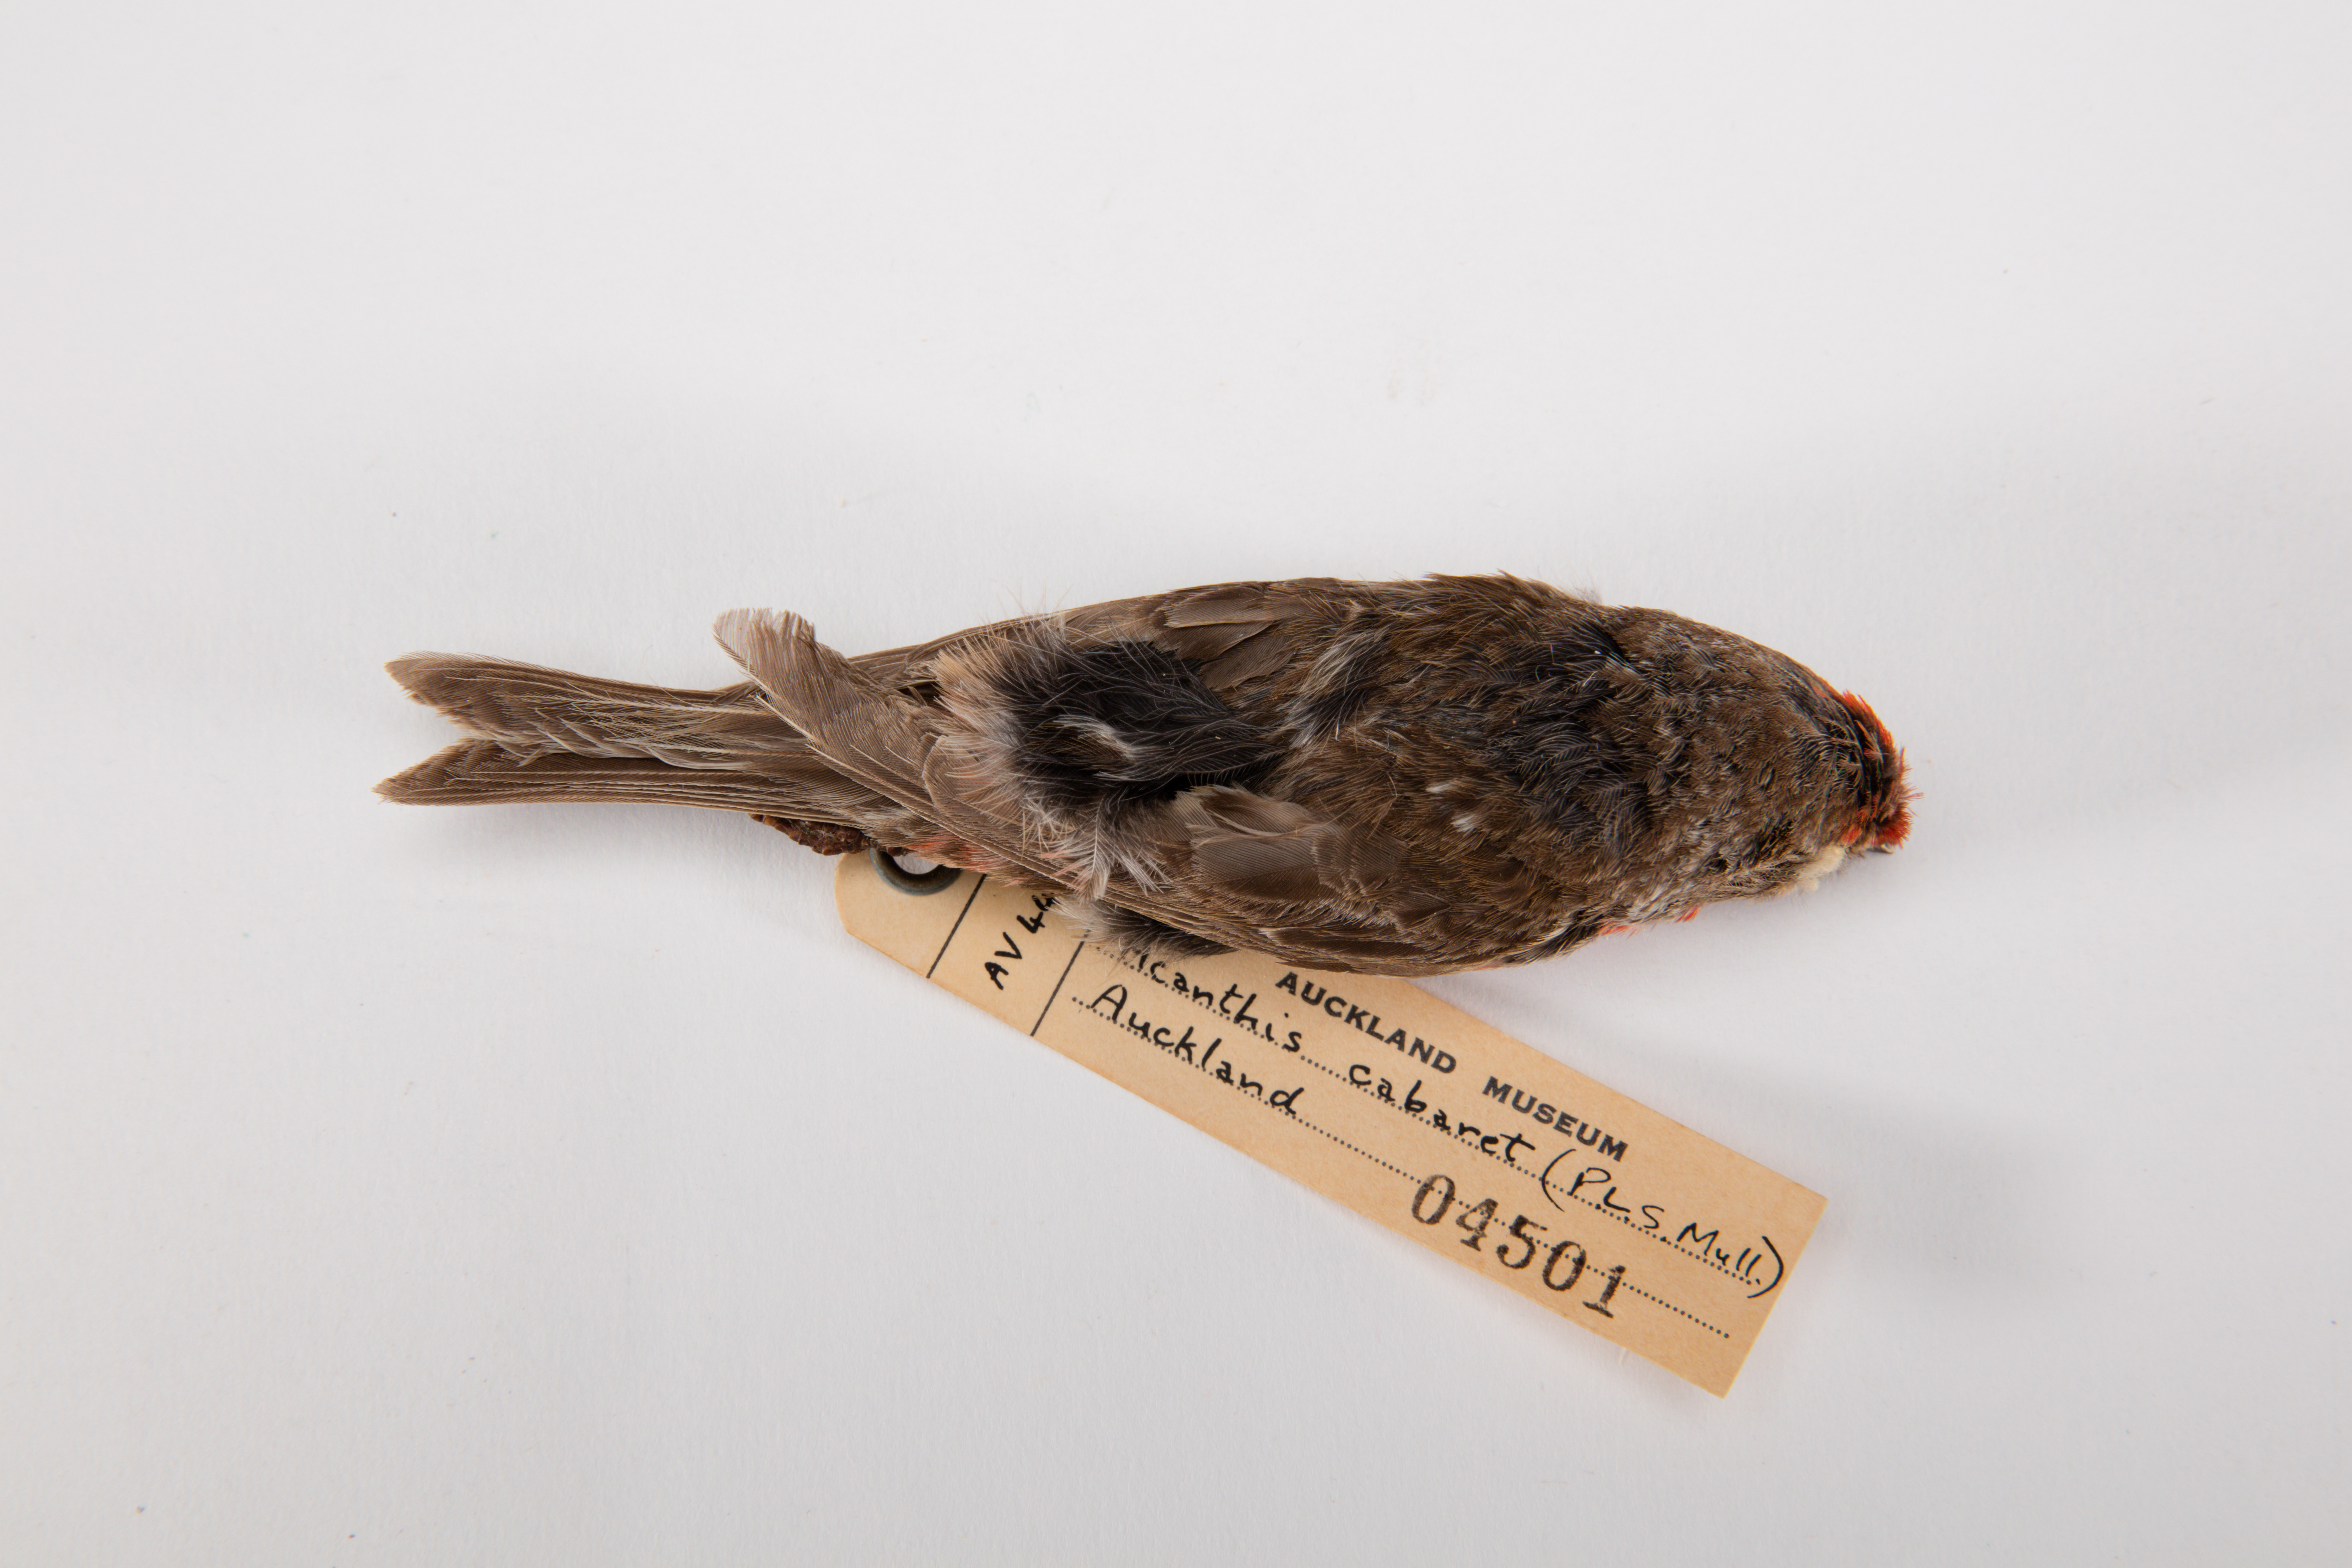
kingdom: Animalia
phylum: Chordata
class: Aves
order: Passeriformes
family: Fringillidae
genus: Acanthis
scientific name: Acanthis flammea
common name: Common redpoll
